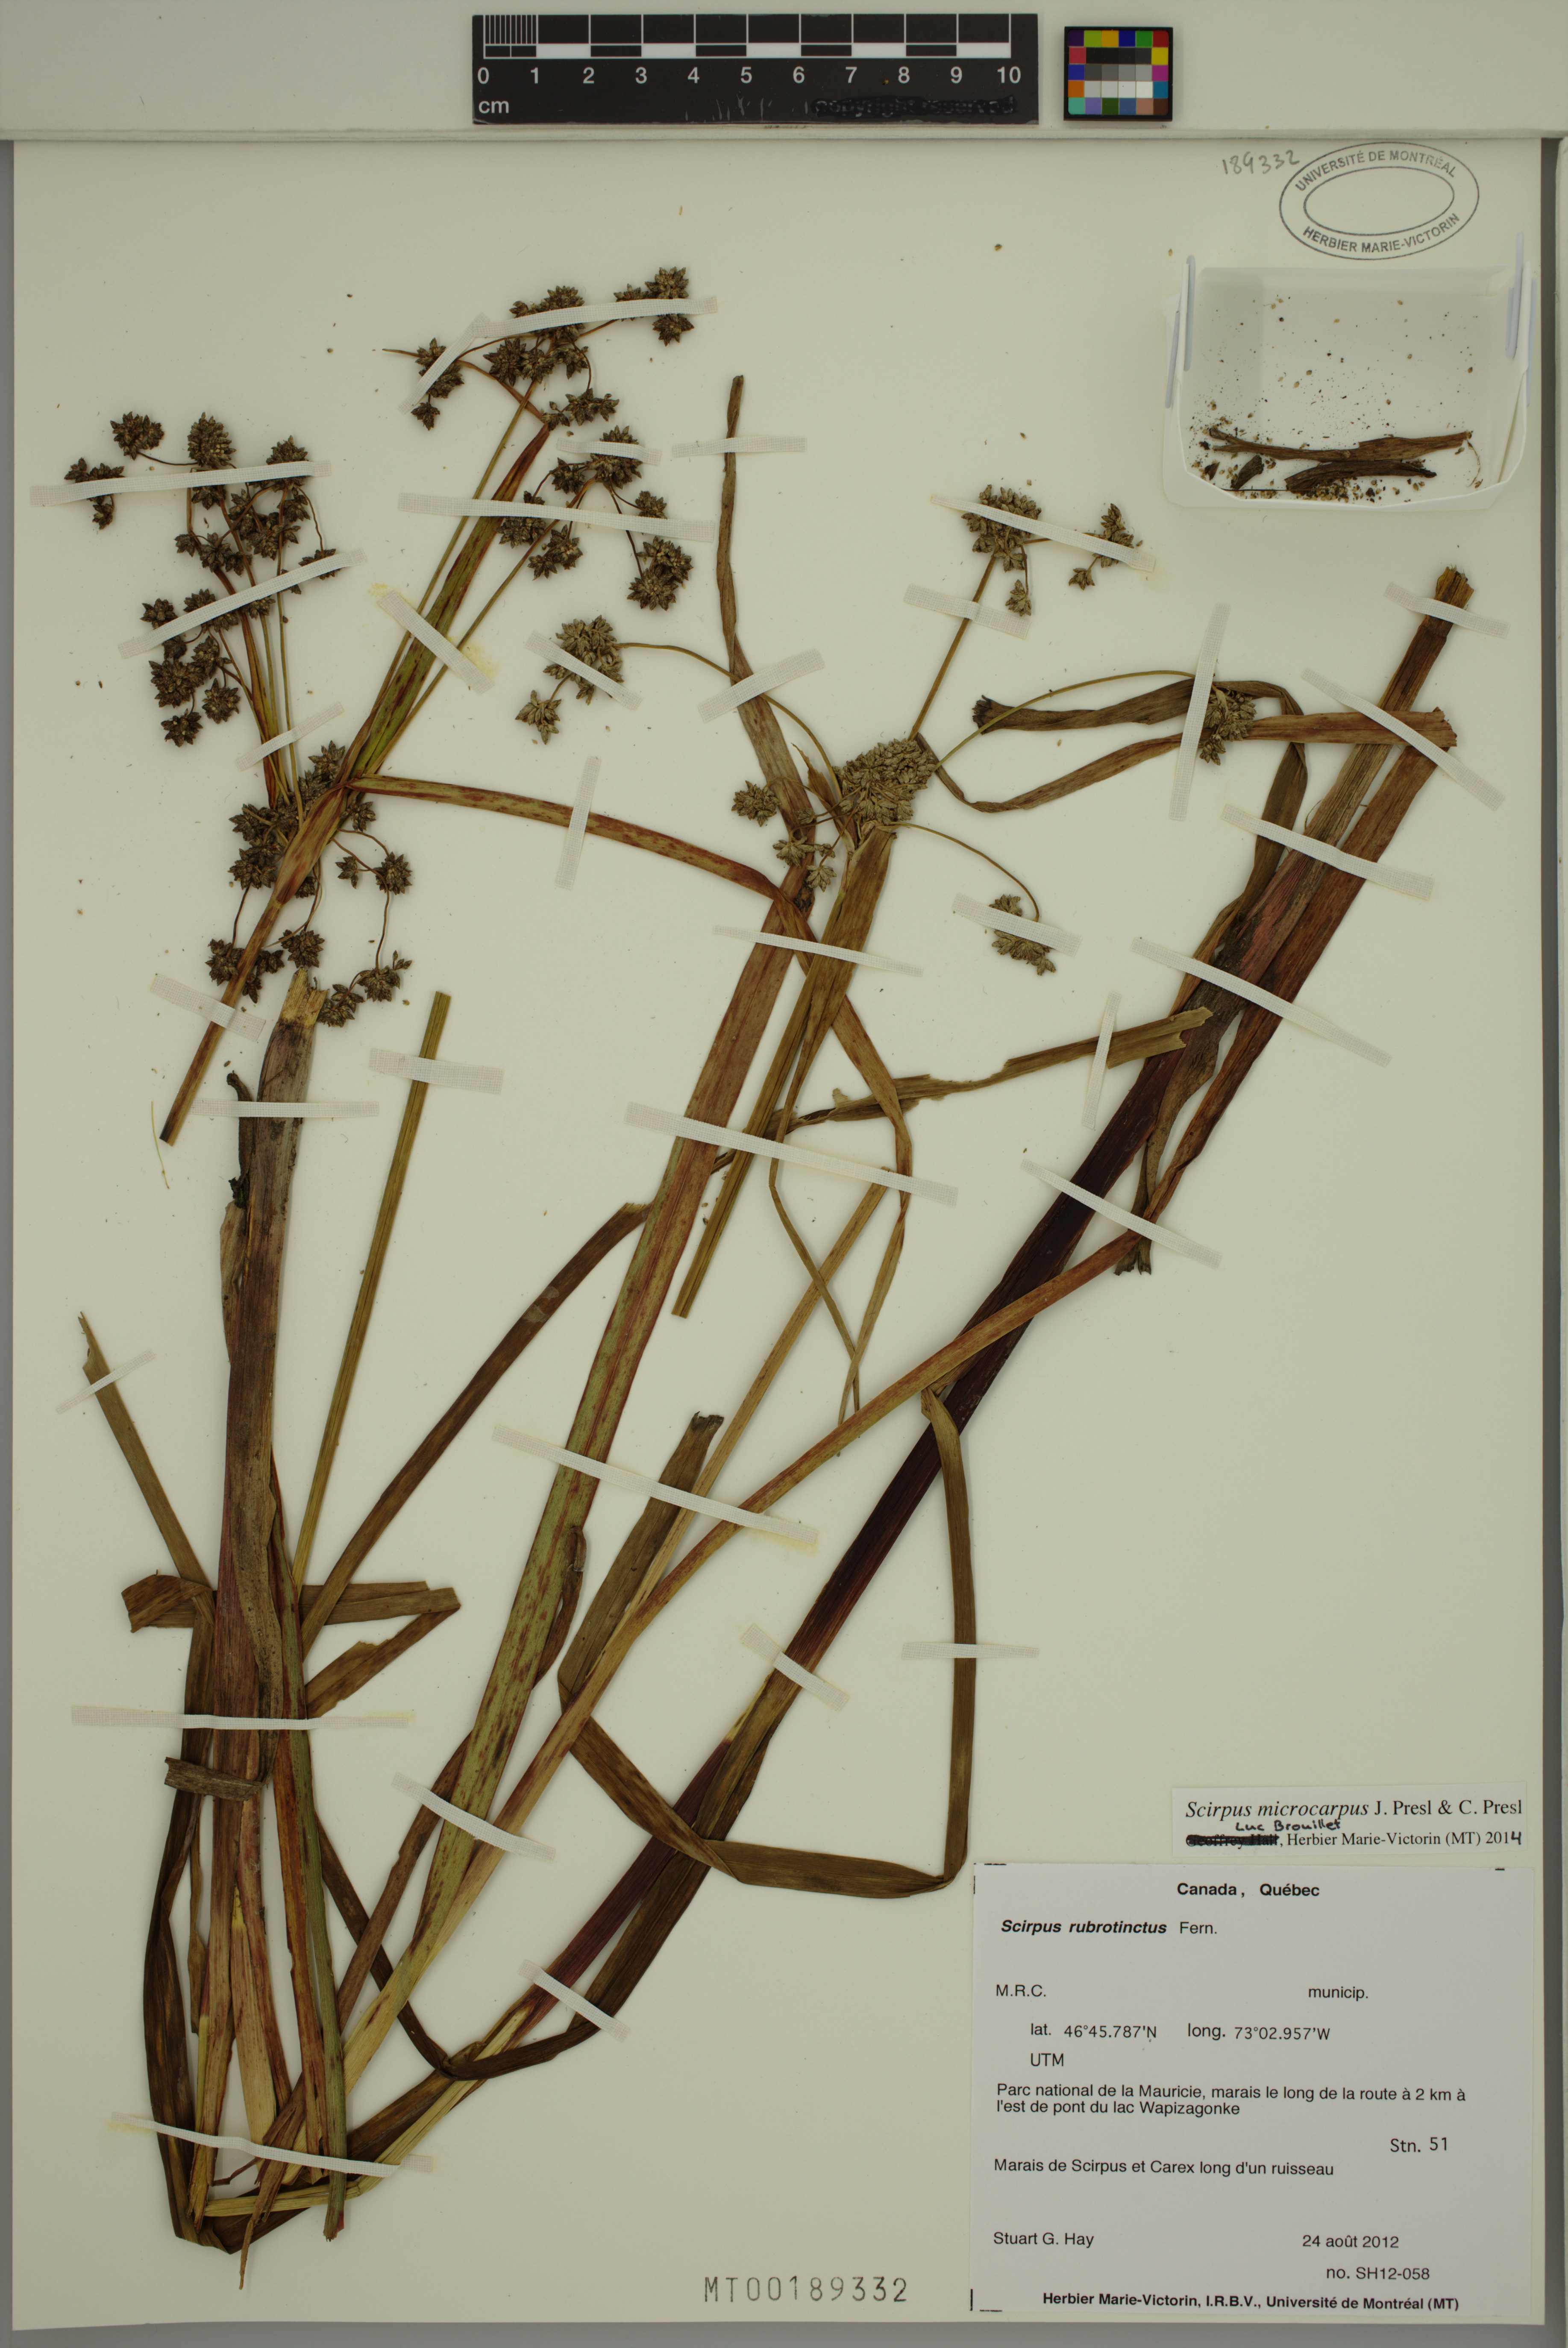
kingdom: Plantae
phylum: Tracheophyta
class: Liliopsida
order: Poales
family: Cyperaceae
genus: Scirpus
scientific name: Scirpus microcarpus
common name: Panicled bulrush
